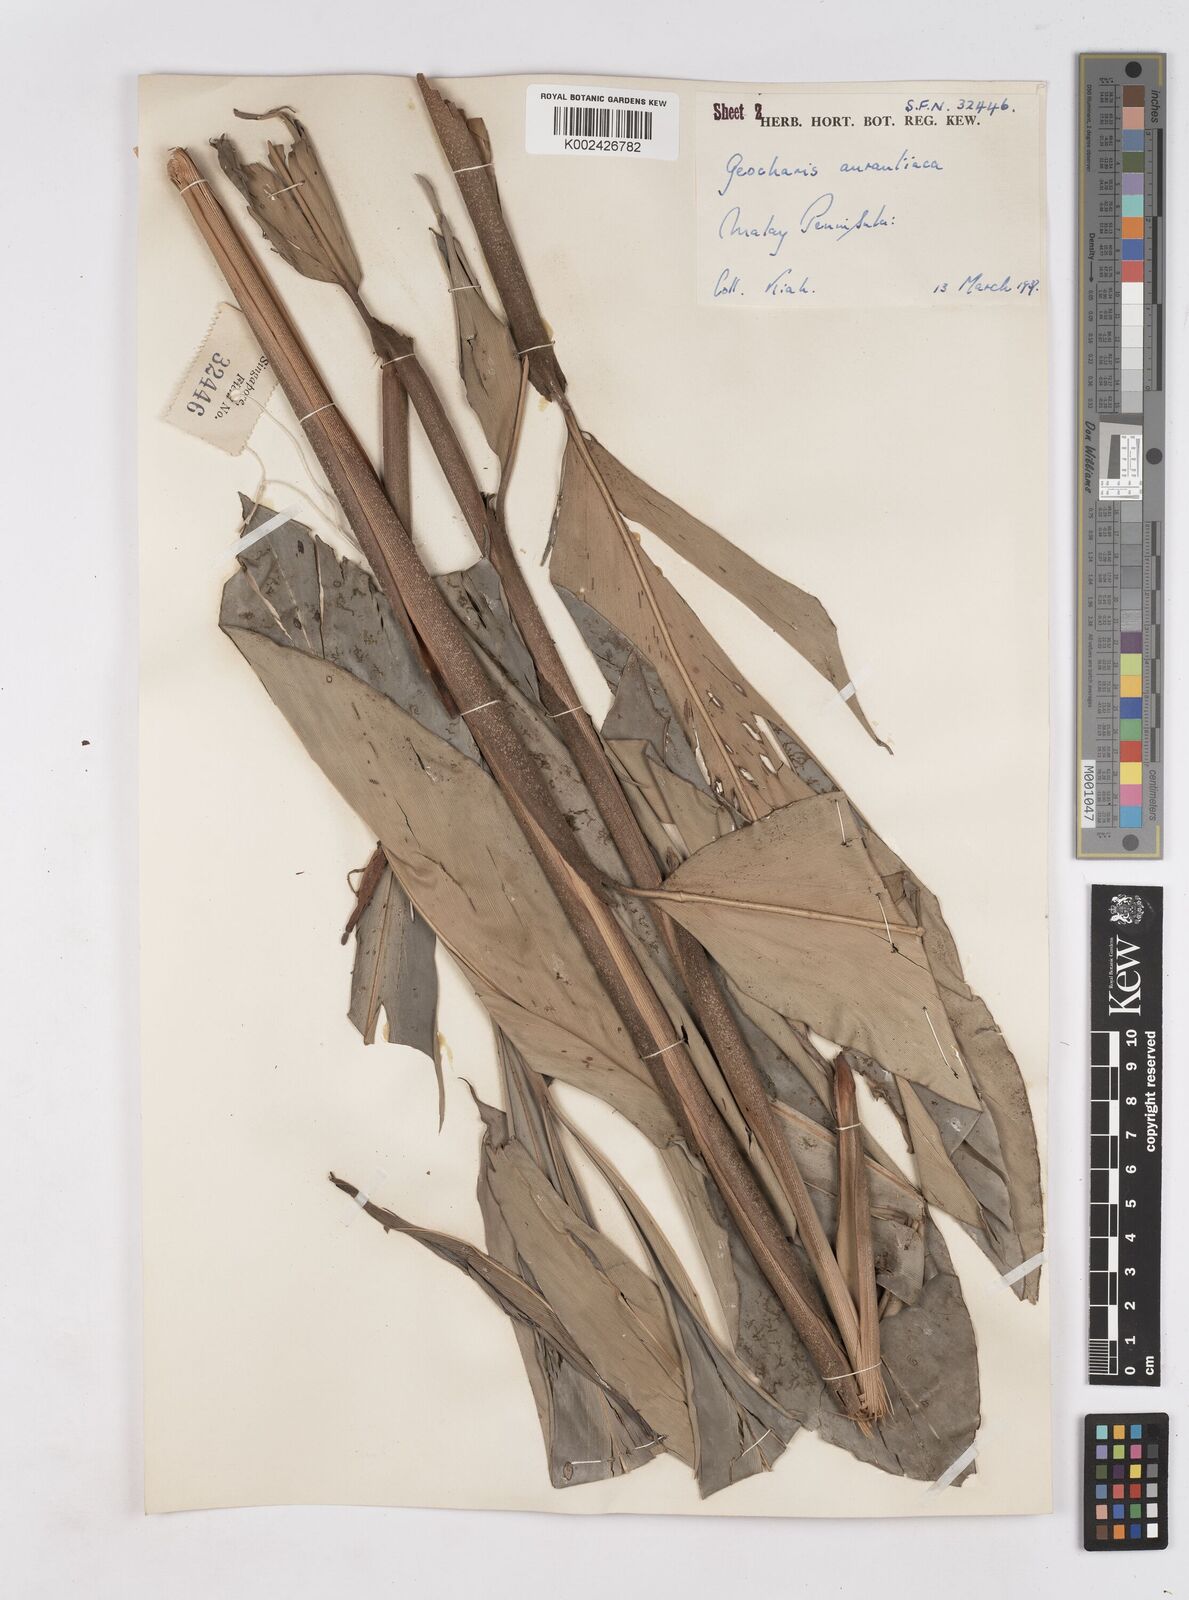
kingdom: Plantae
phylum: Tracheophyta
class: Liliopsida
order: Zingiberales
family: Zingiberaceae
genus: Geocharis
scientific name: Geocharis aurantiaca
